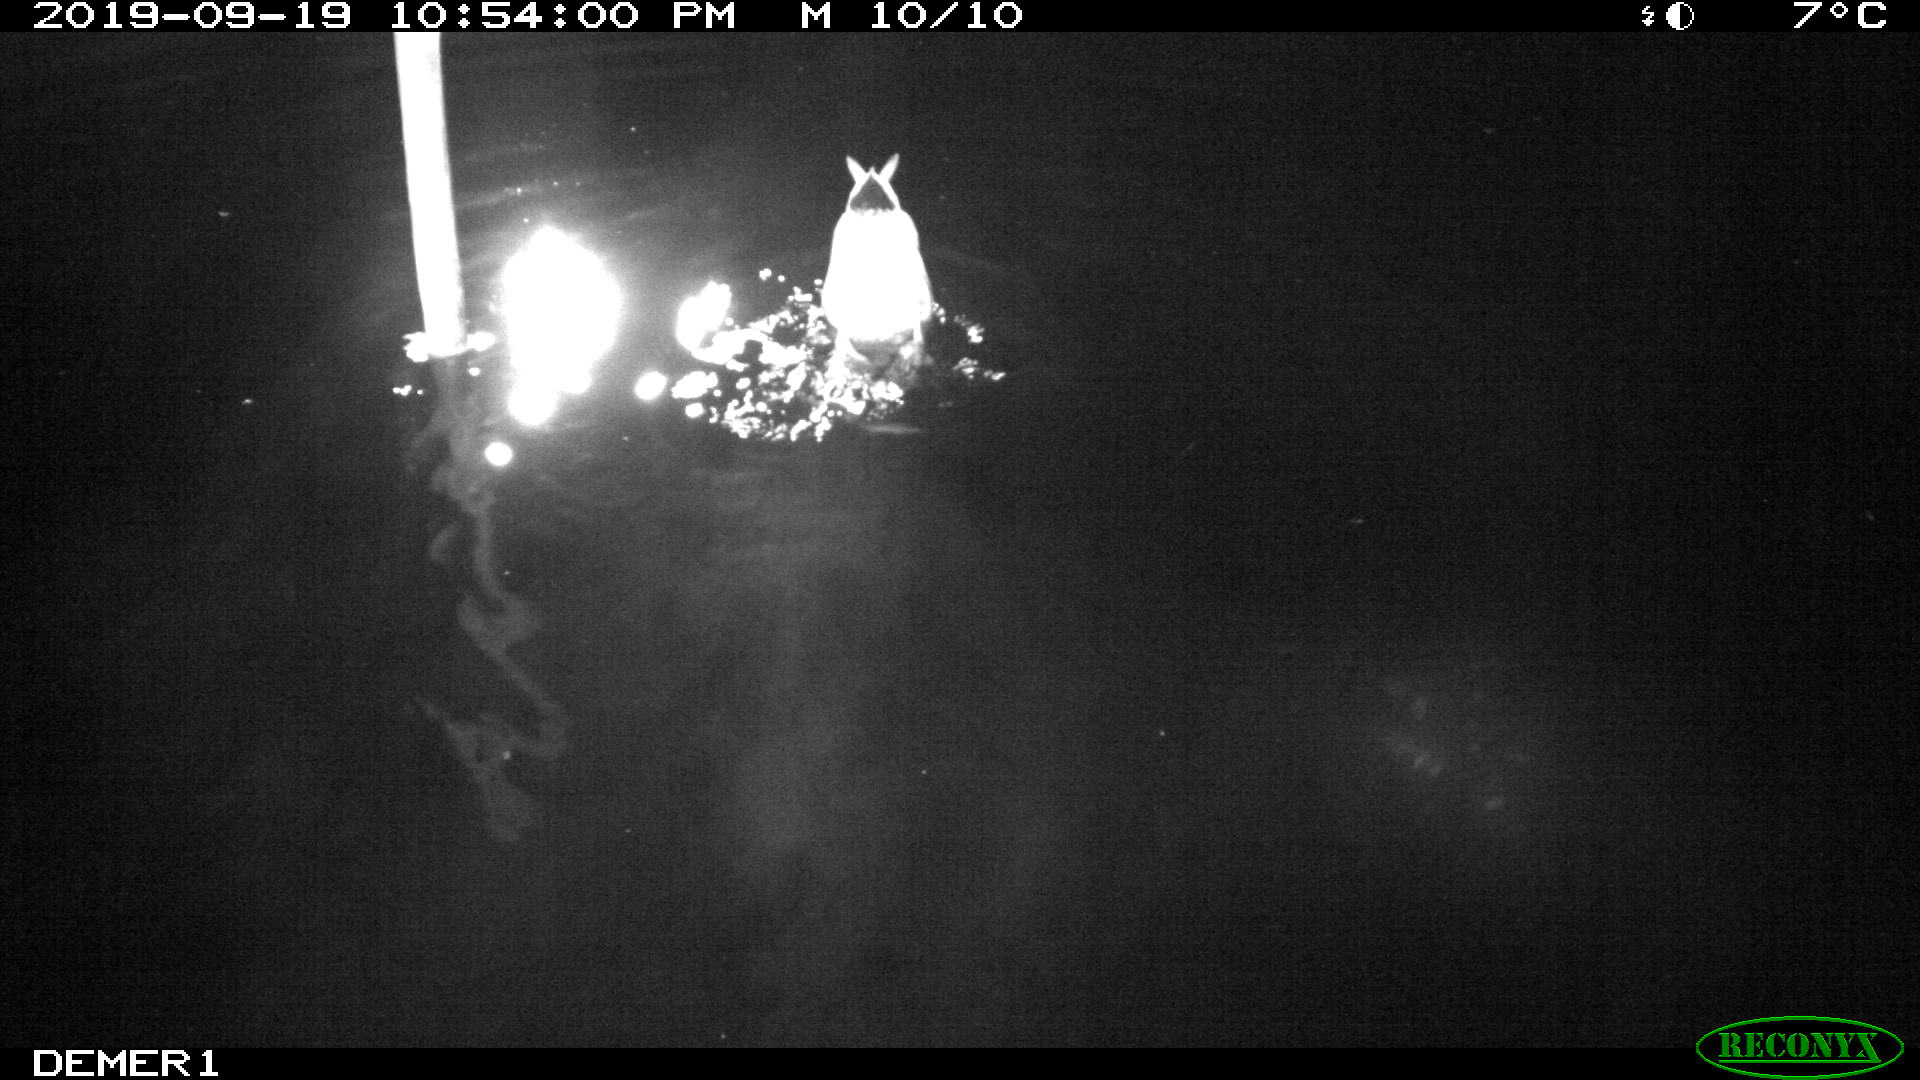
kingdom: Animalia
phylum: Chordata
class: Aves
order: Anseriformes
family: Anatidae
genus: Anas
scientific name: Anas platyrhynchos
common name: Mallard
